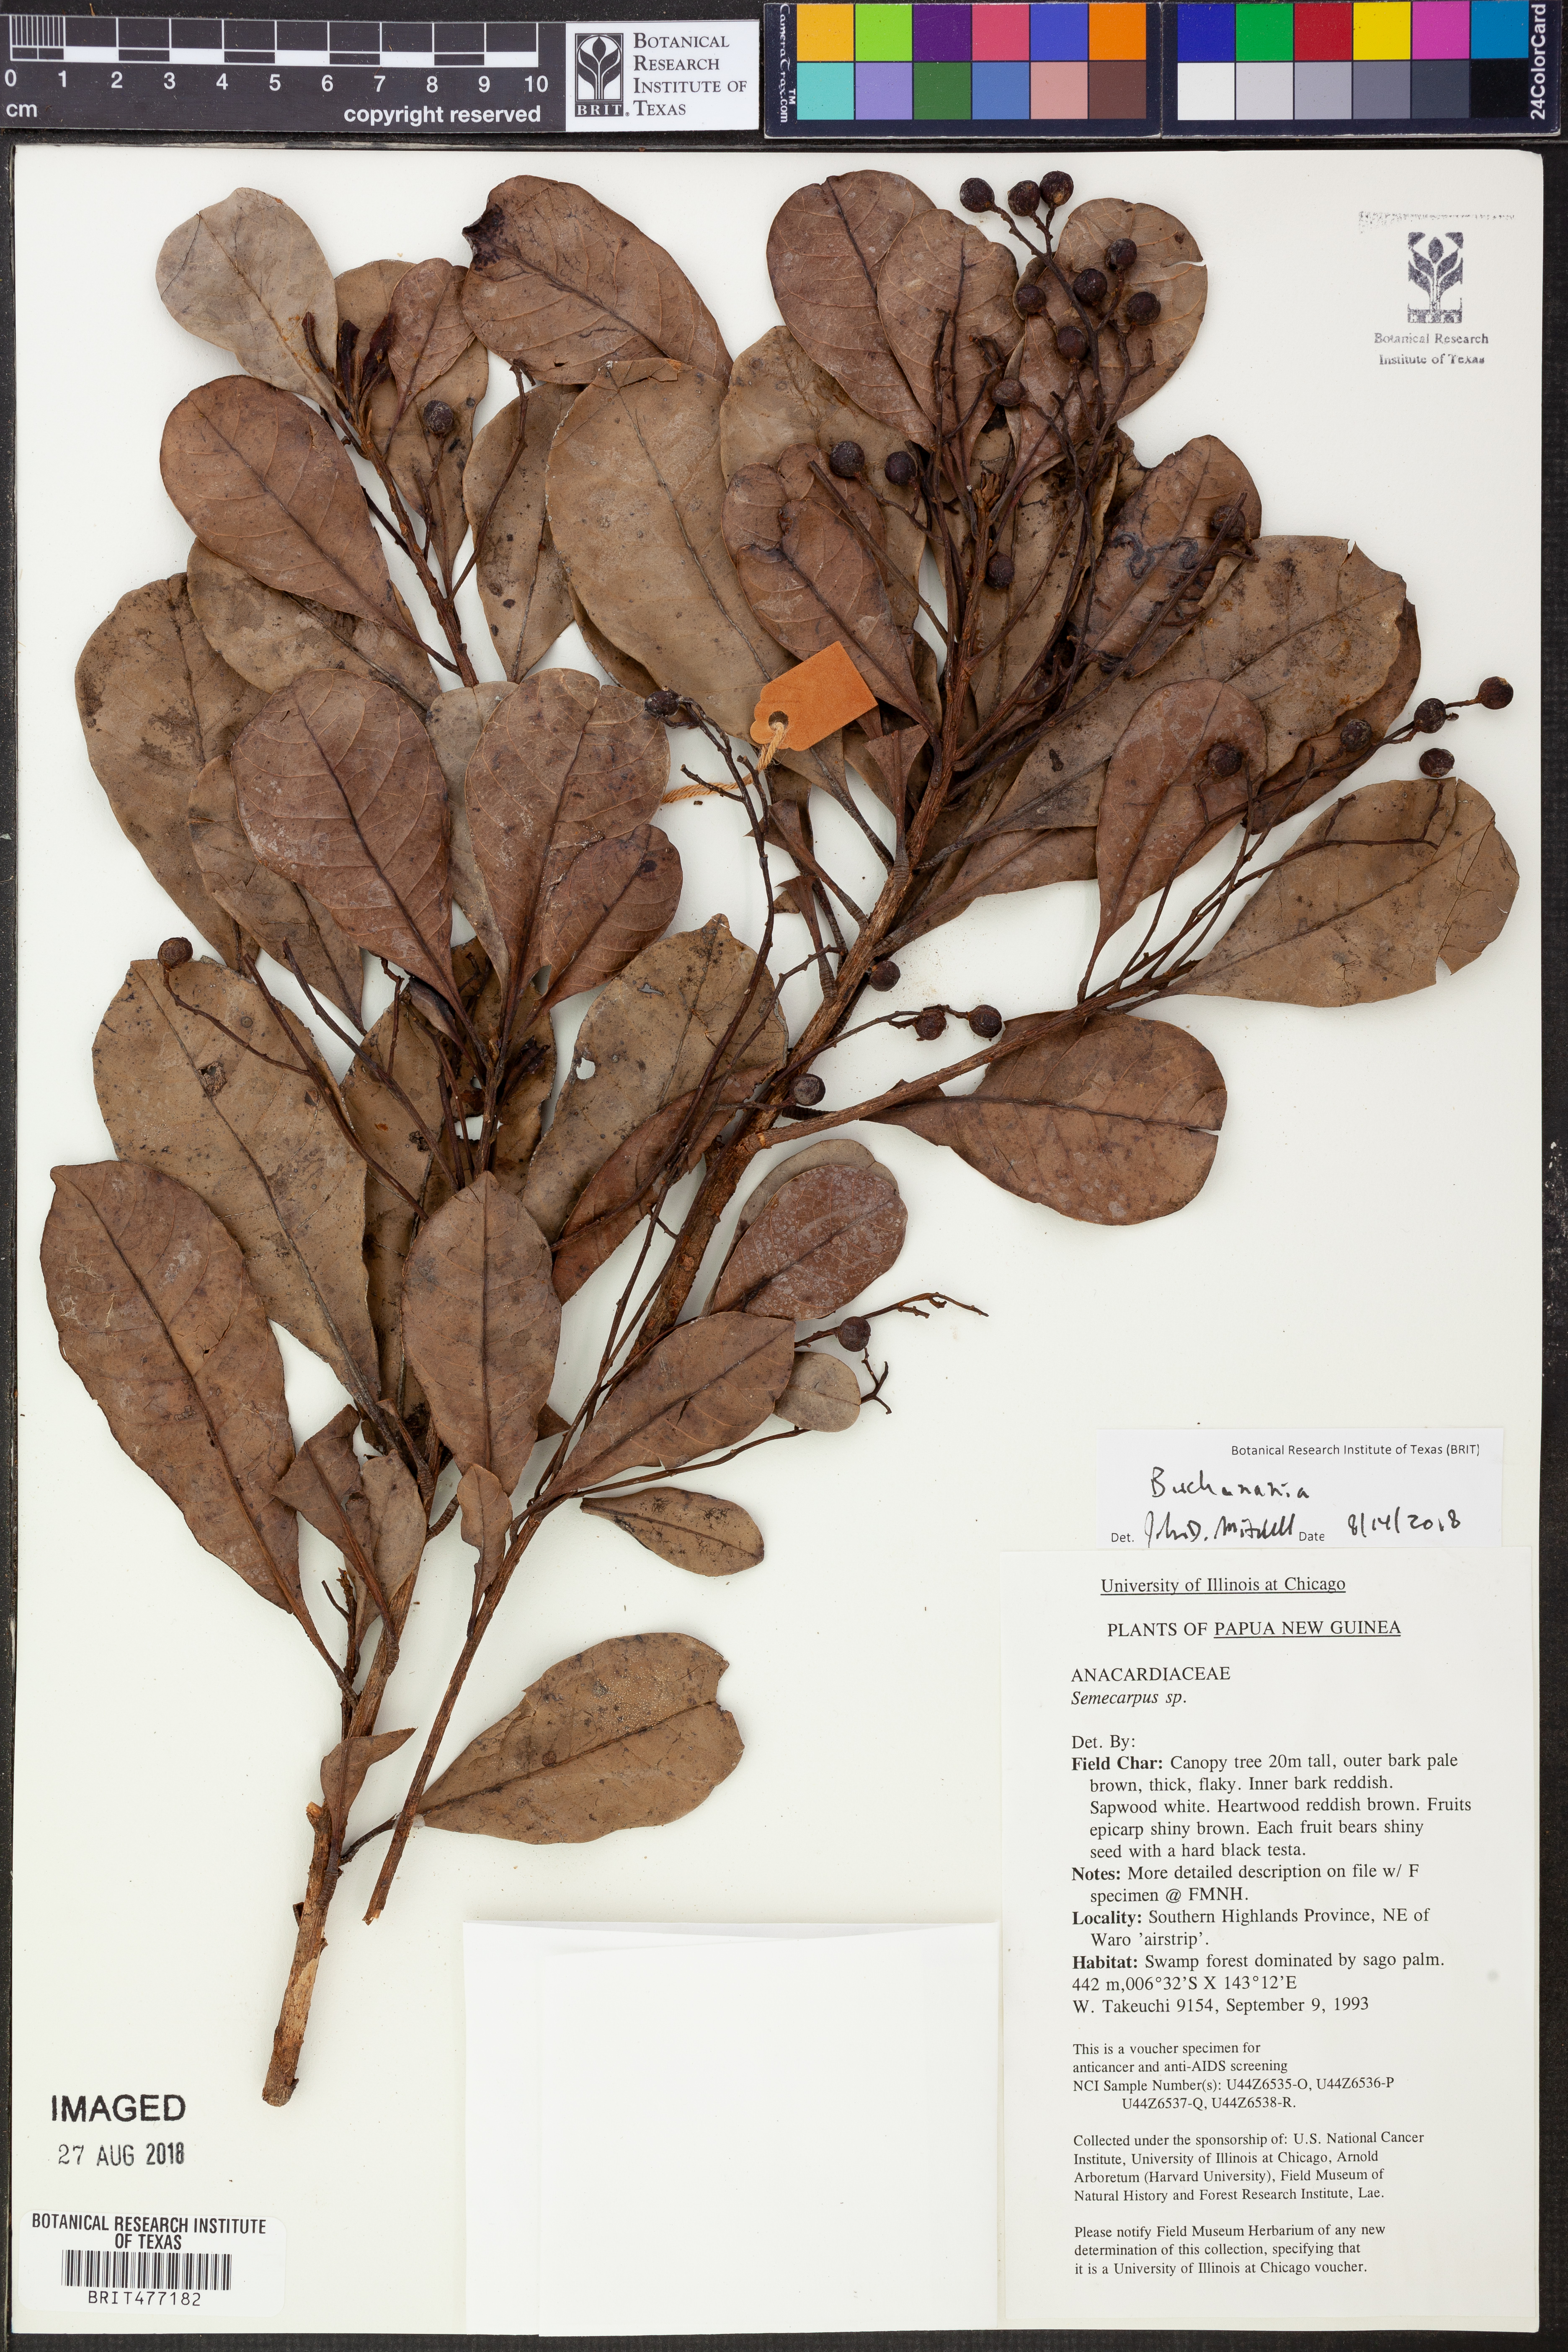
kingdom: Plantae
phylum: Tracheophyta
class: Magnoliopsida
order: Sapindales
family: Anacardiaceae
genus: Buchanania
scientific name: Buchanania
